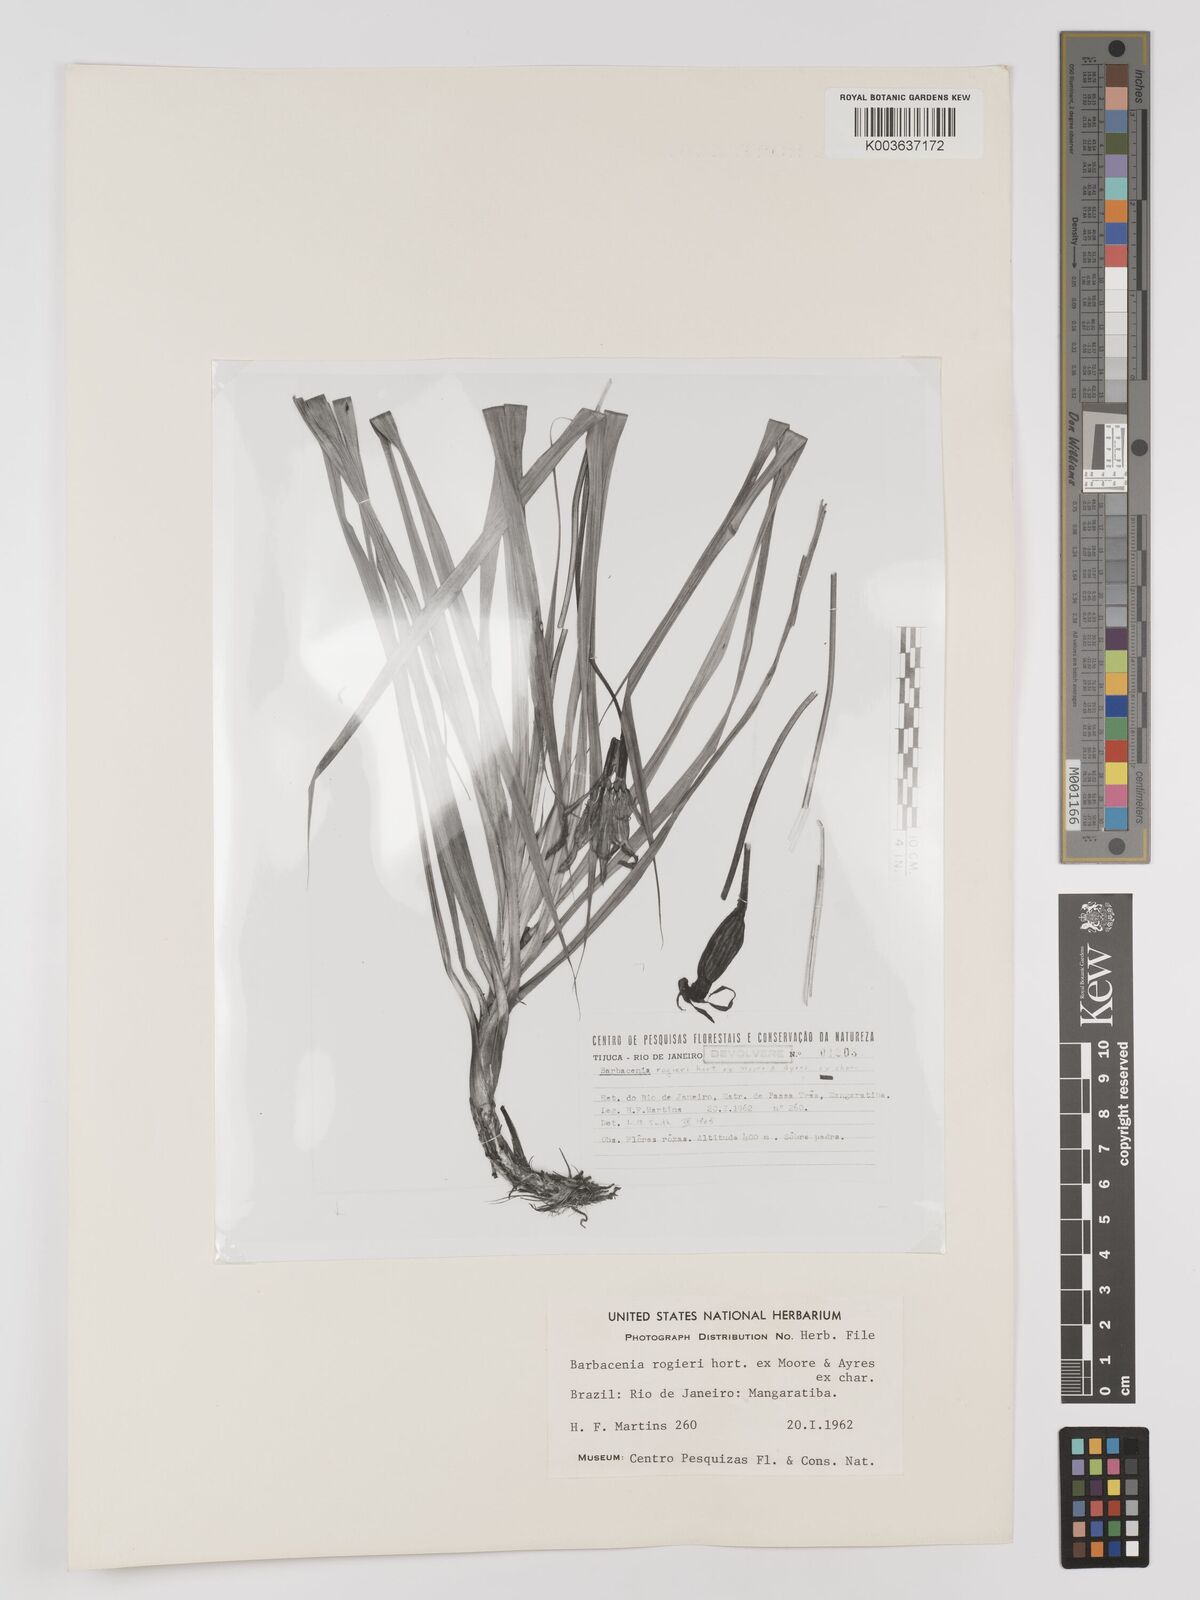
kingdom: Plantae
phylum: Tracheophyta
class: Liliopsida
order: Pandanales
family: Velloziaceae
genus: Barbacenia
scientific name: Barbacenia rogieri
